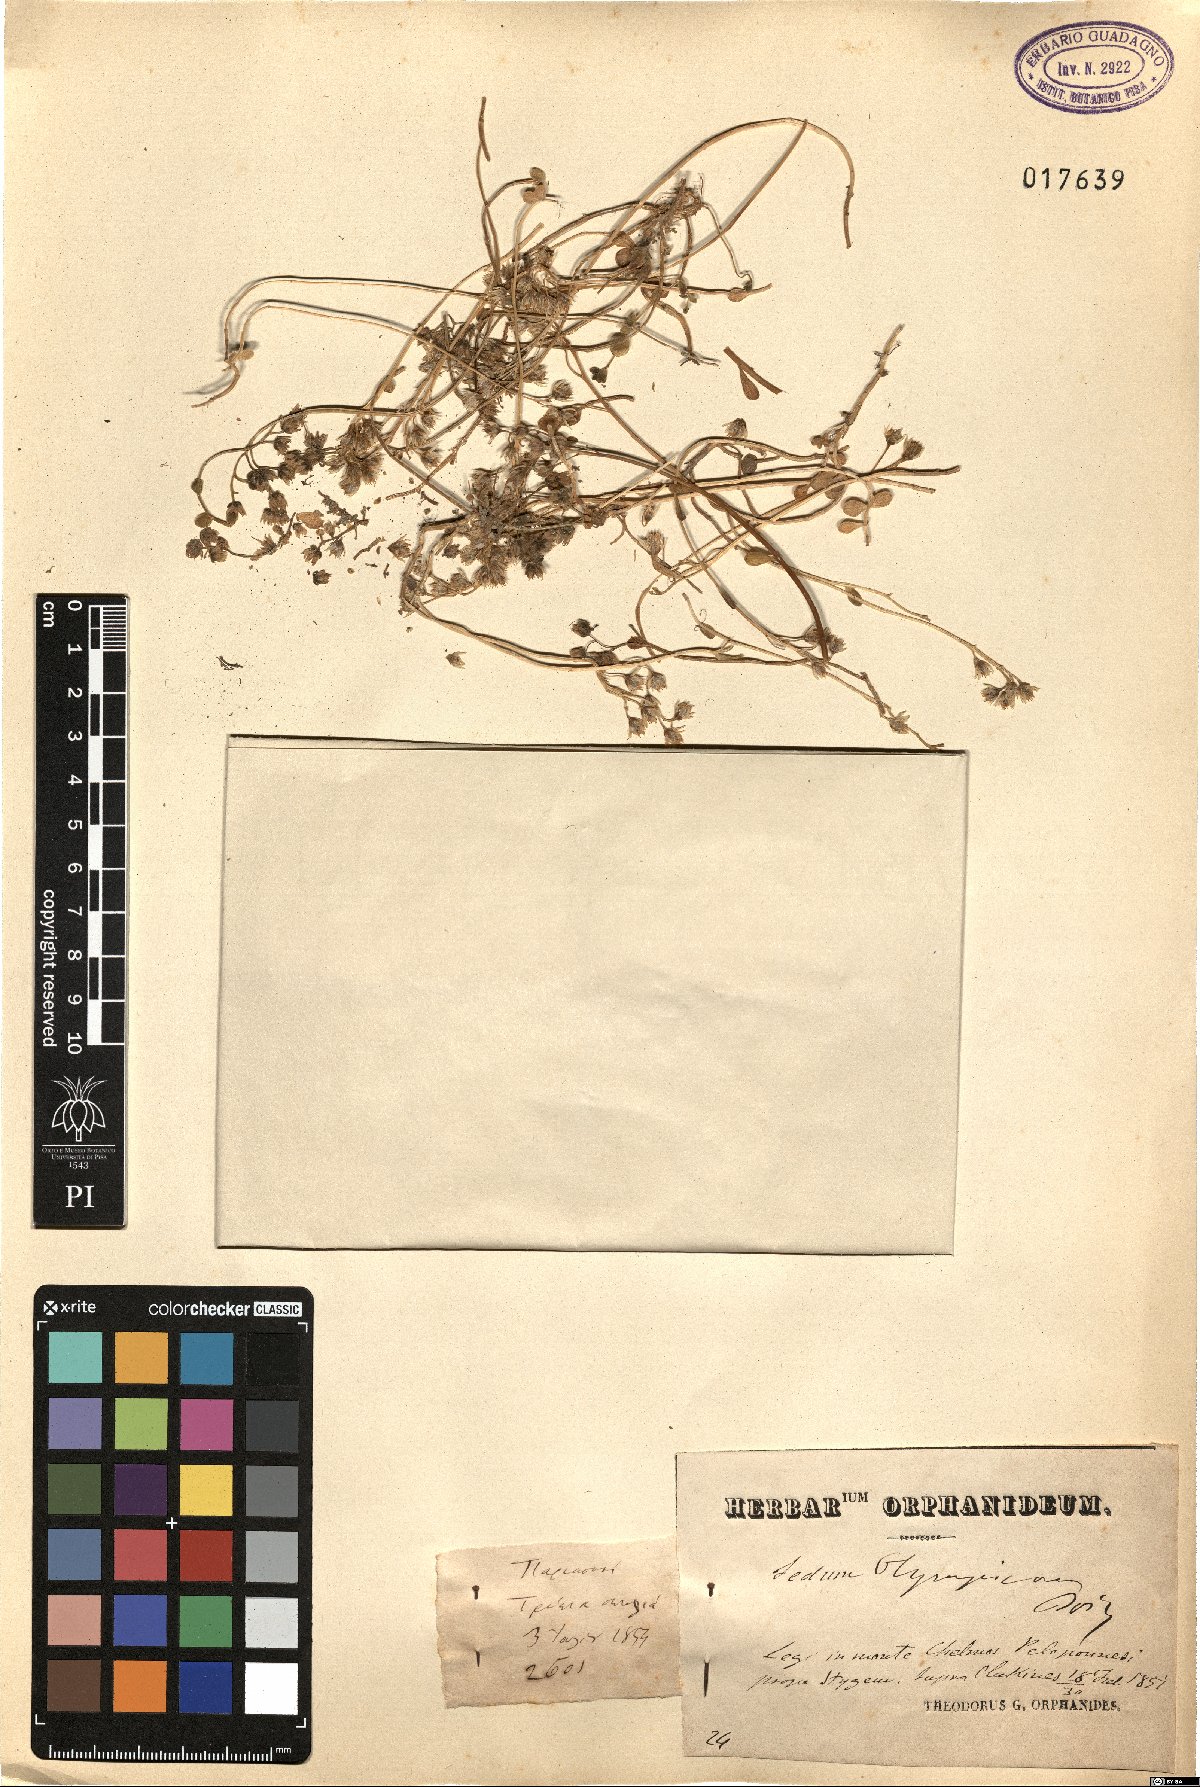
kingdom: Plantae
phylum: Tracheophyta
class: Magnoliopsida
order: Saxifragales
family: Crassulaceae
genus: Sedum
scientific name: Sedum magellense
